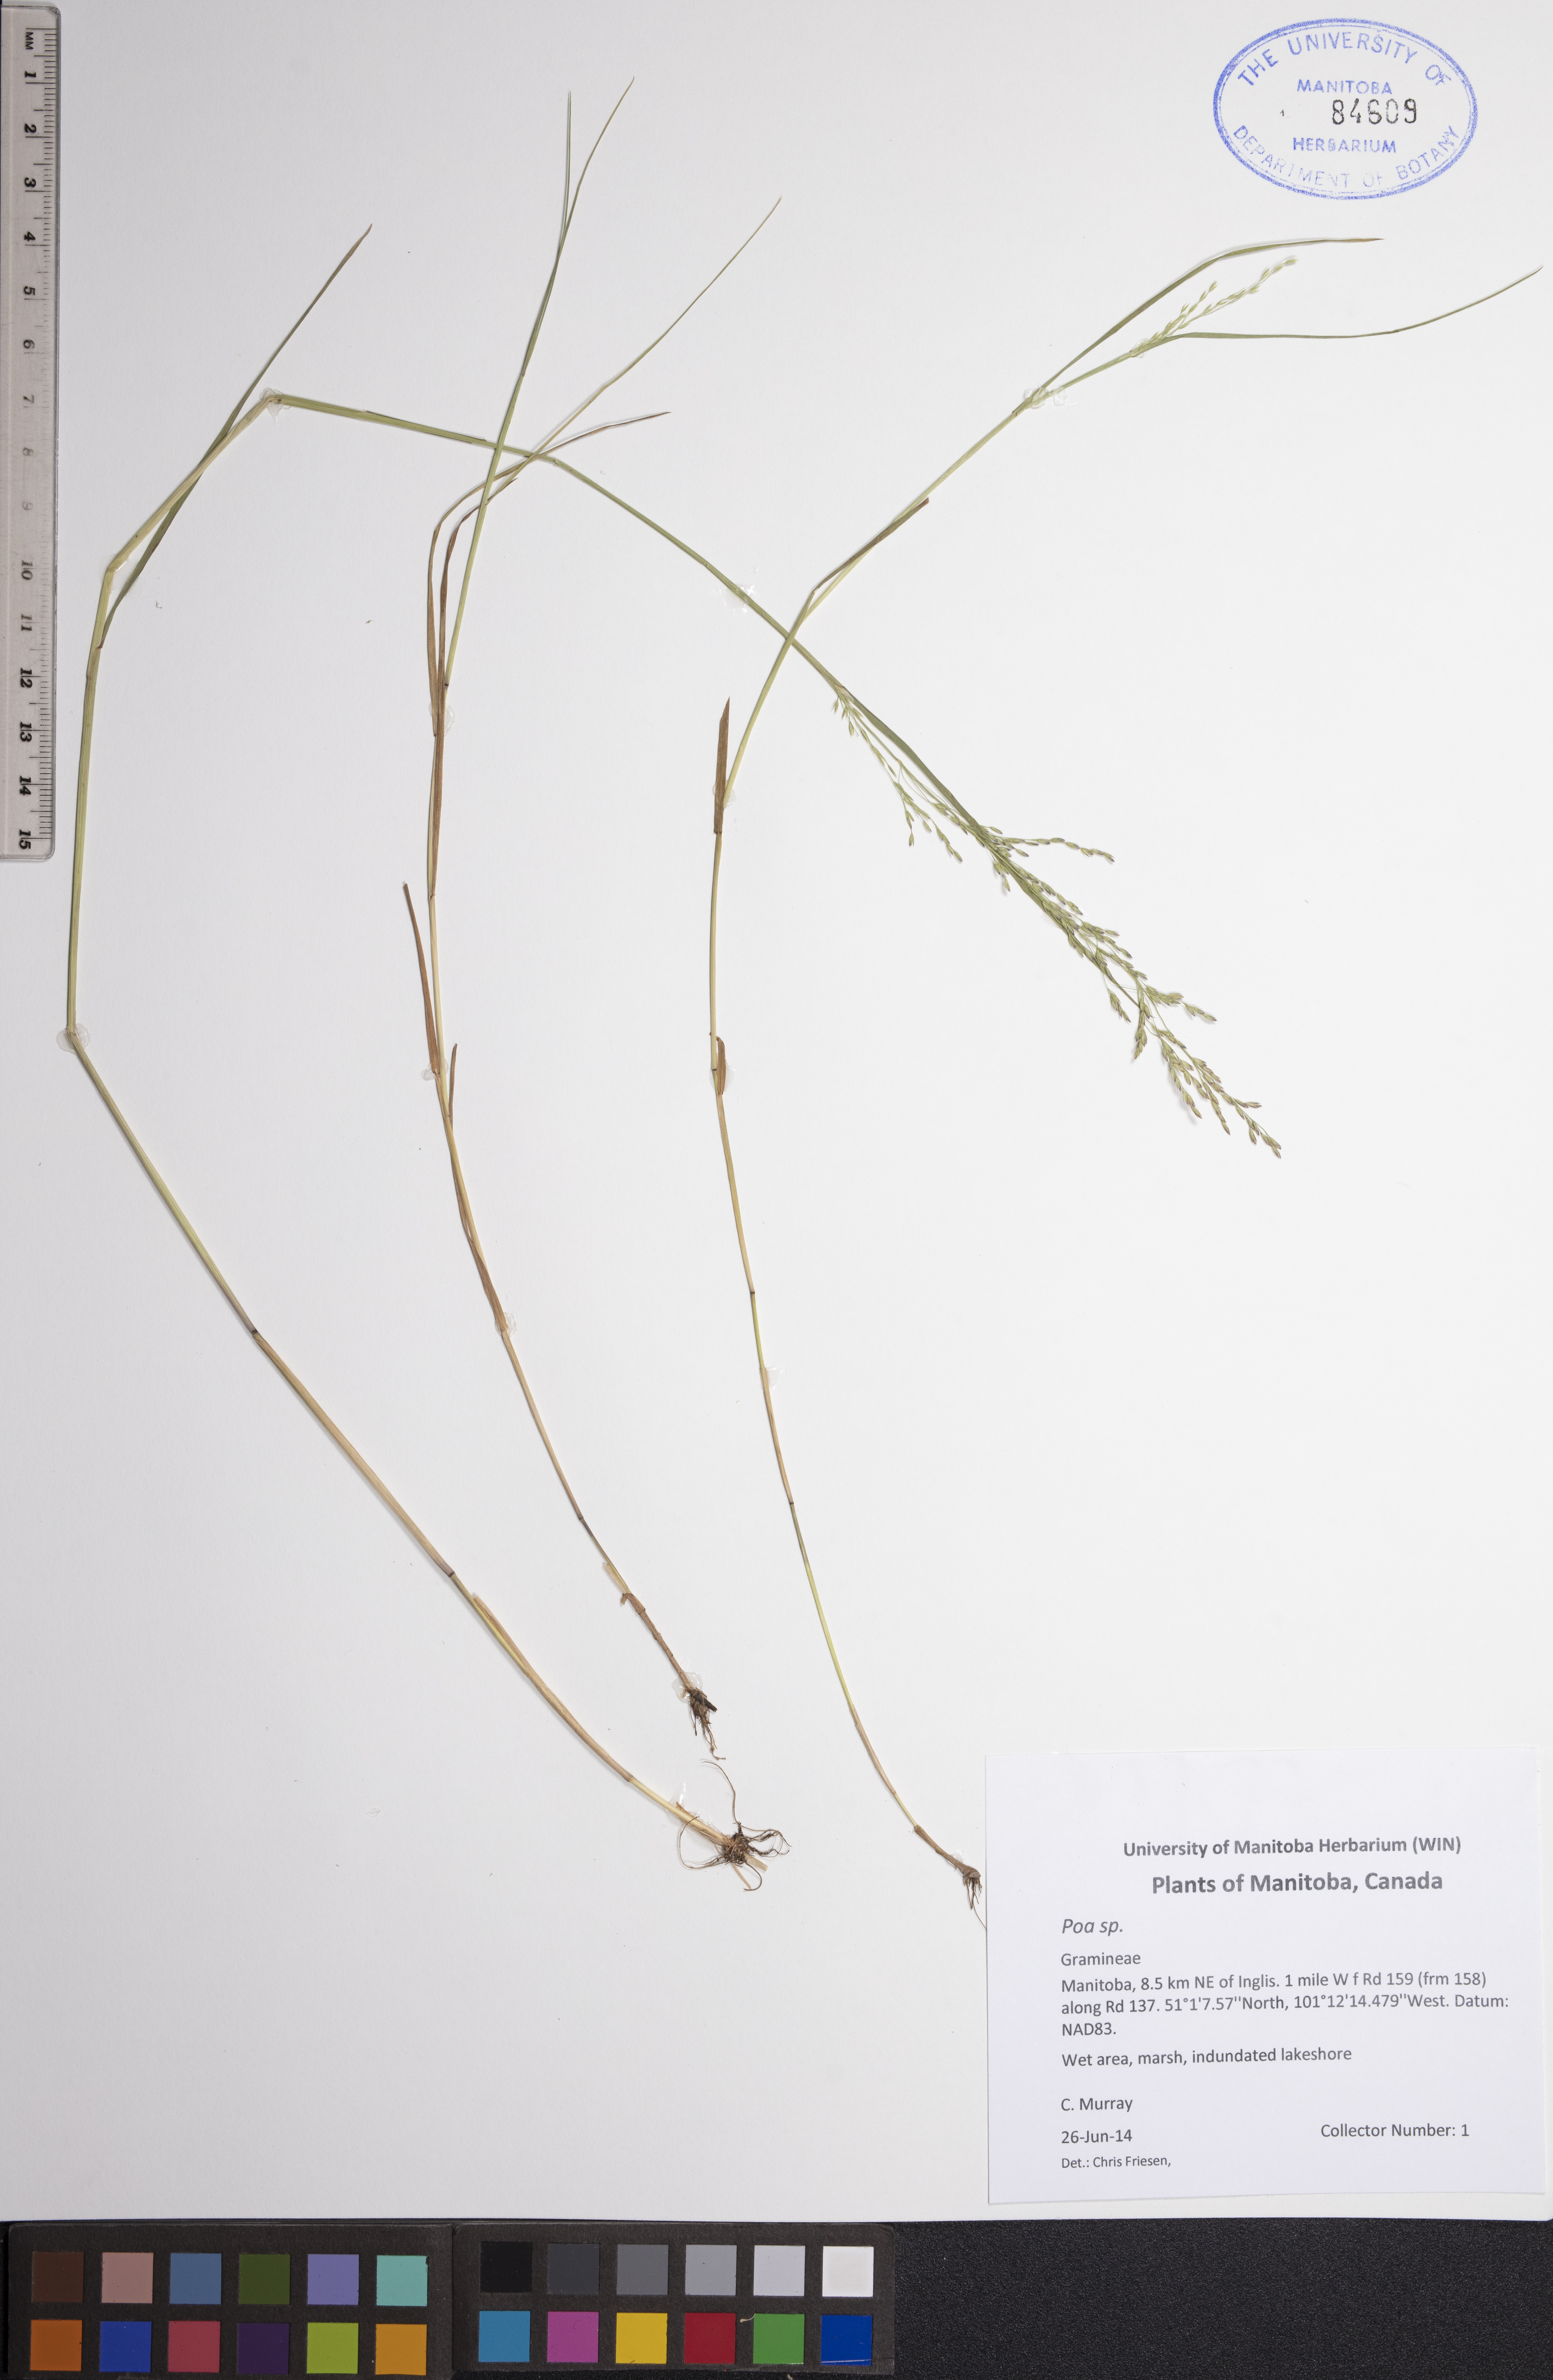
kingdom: Plantae
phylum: Tracheophyta
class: Liliopsida
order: Poales
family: Poaceae
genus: Poa
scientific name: Poa
